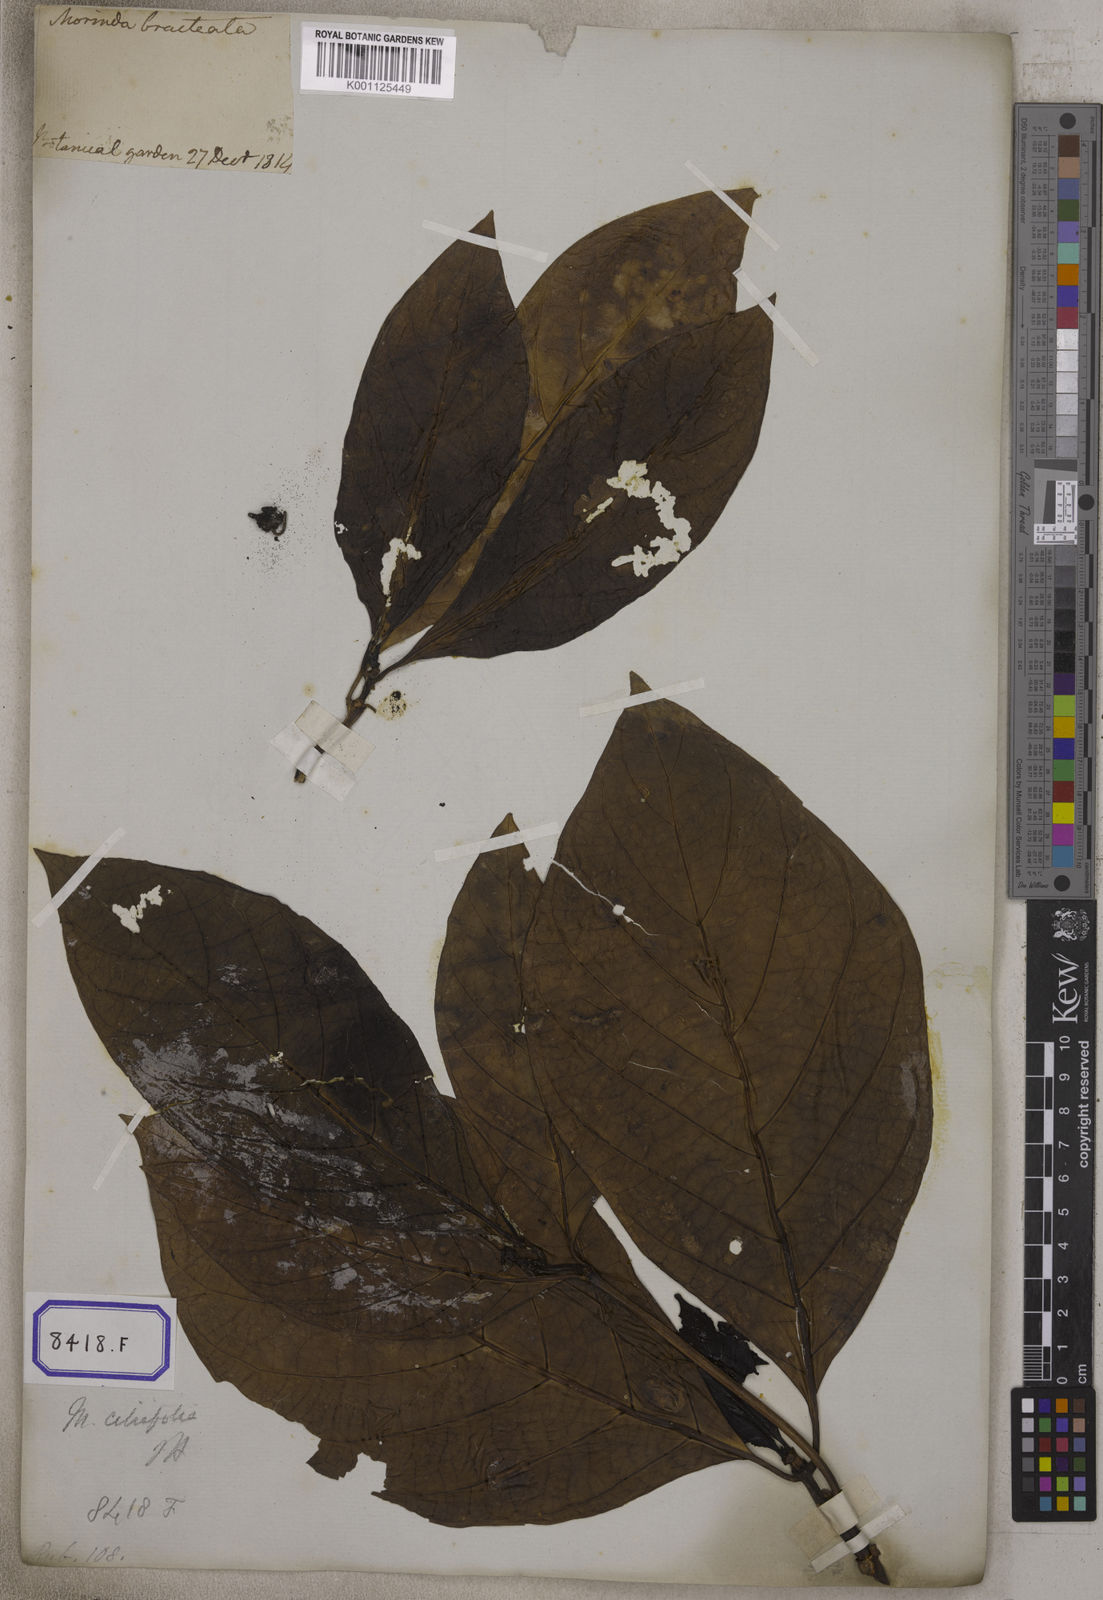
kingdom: Plantae
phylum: Tracheophyta
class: Magnoliopsida
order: Gentianales
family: Rubiaceae
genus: Morinda
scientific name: Morinda citrifolia
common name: Indian-mulberry
